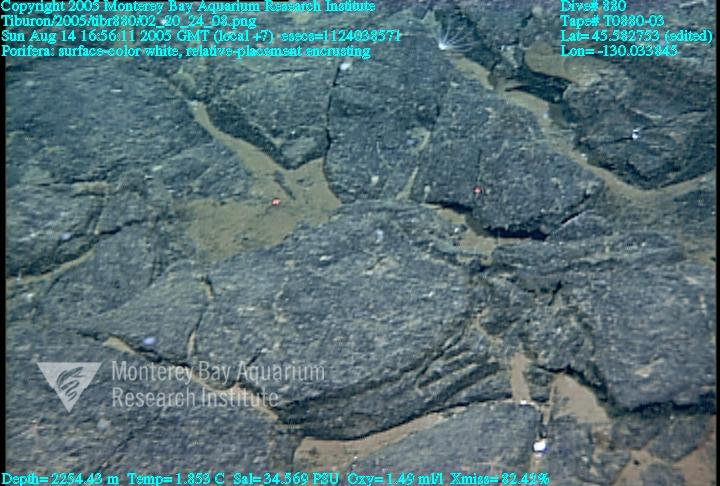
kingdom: Animalia
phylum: Porifera
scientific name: Porifera
